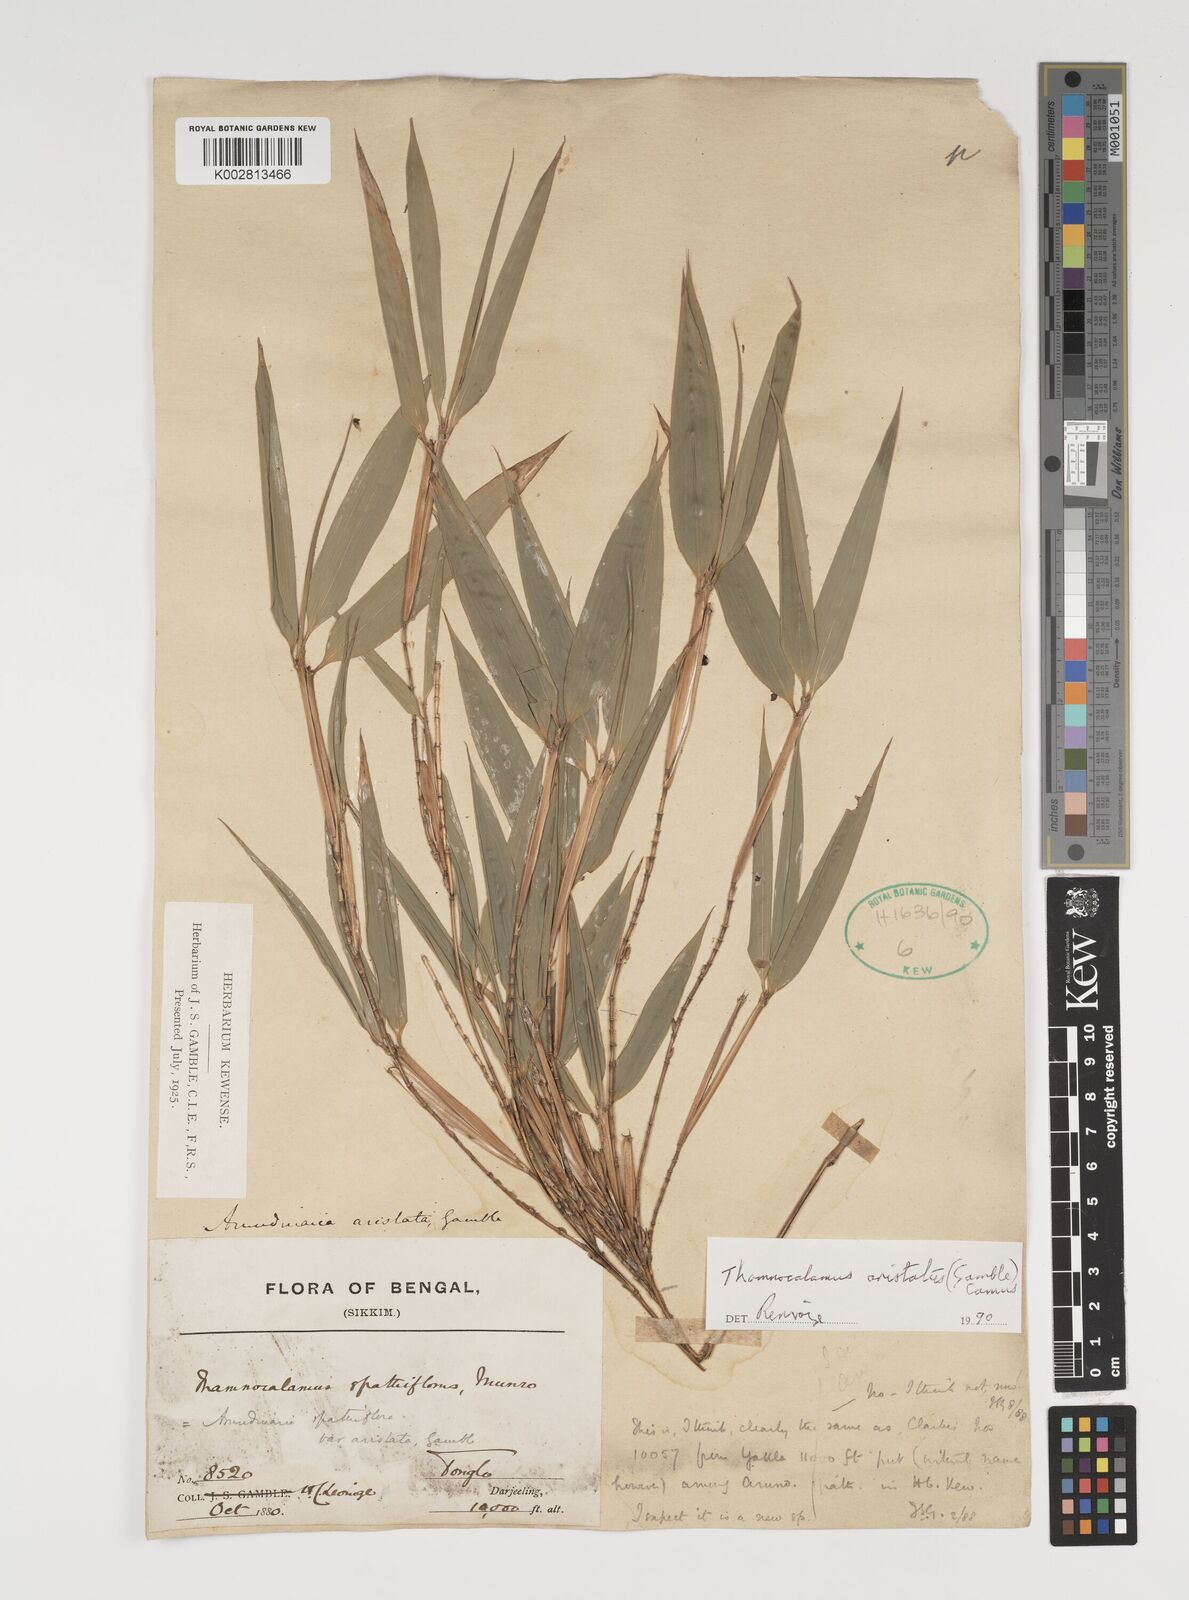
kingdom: Plantae
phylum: Tracheophyta
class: Liliopsida
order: Poales
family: Poaceae
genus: Thamnocalamus
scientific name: Thamnocalamus spathiflorus
